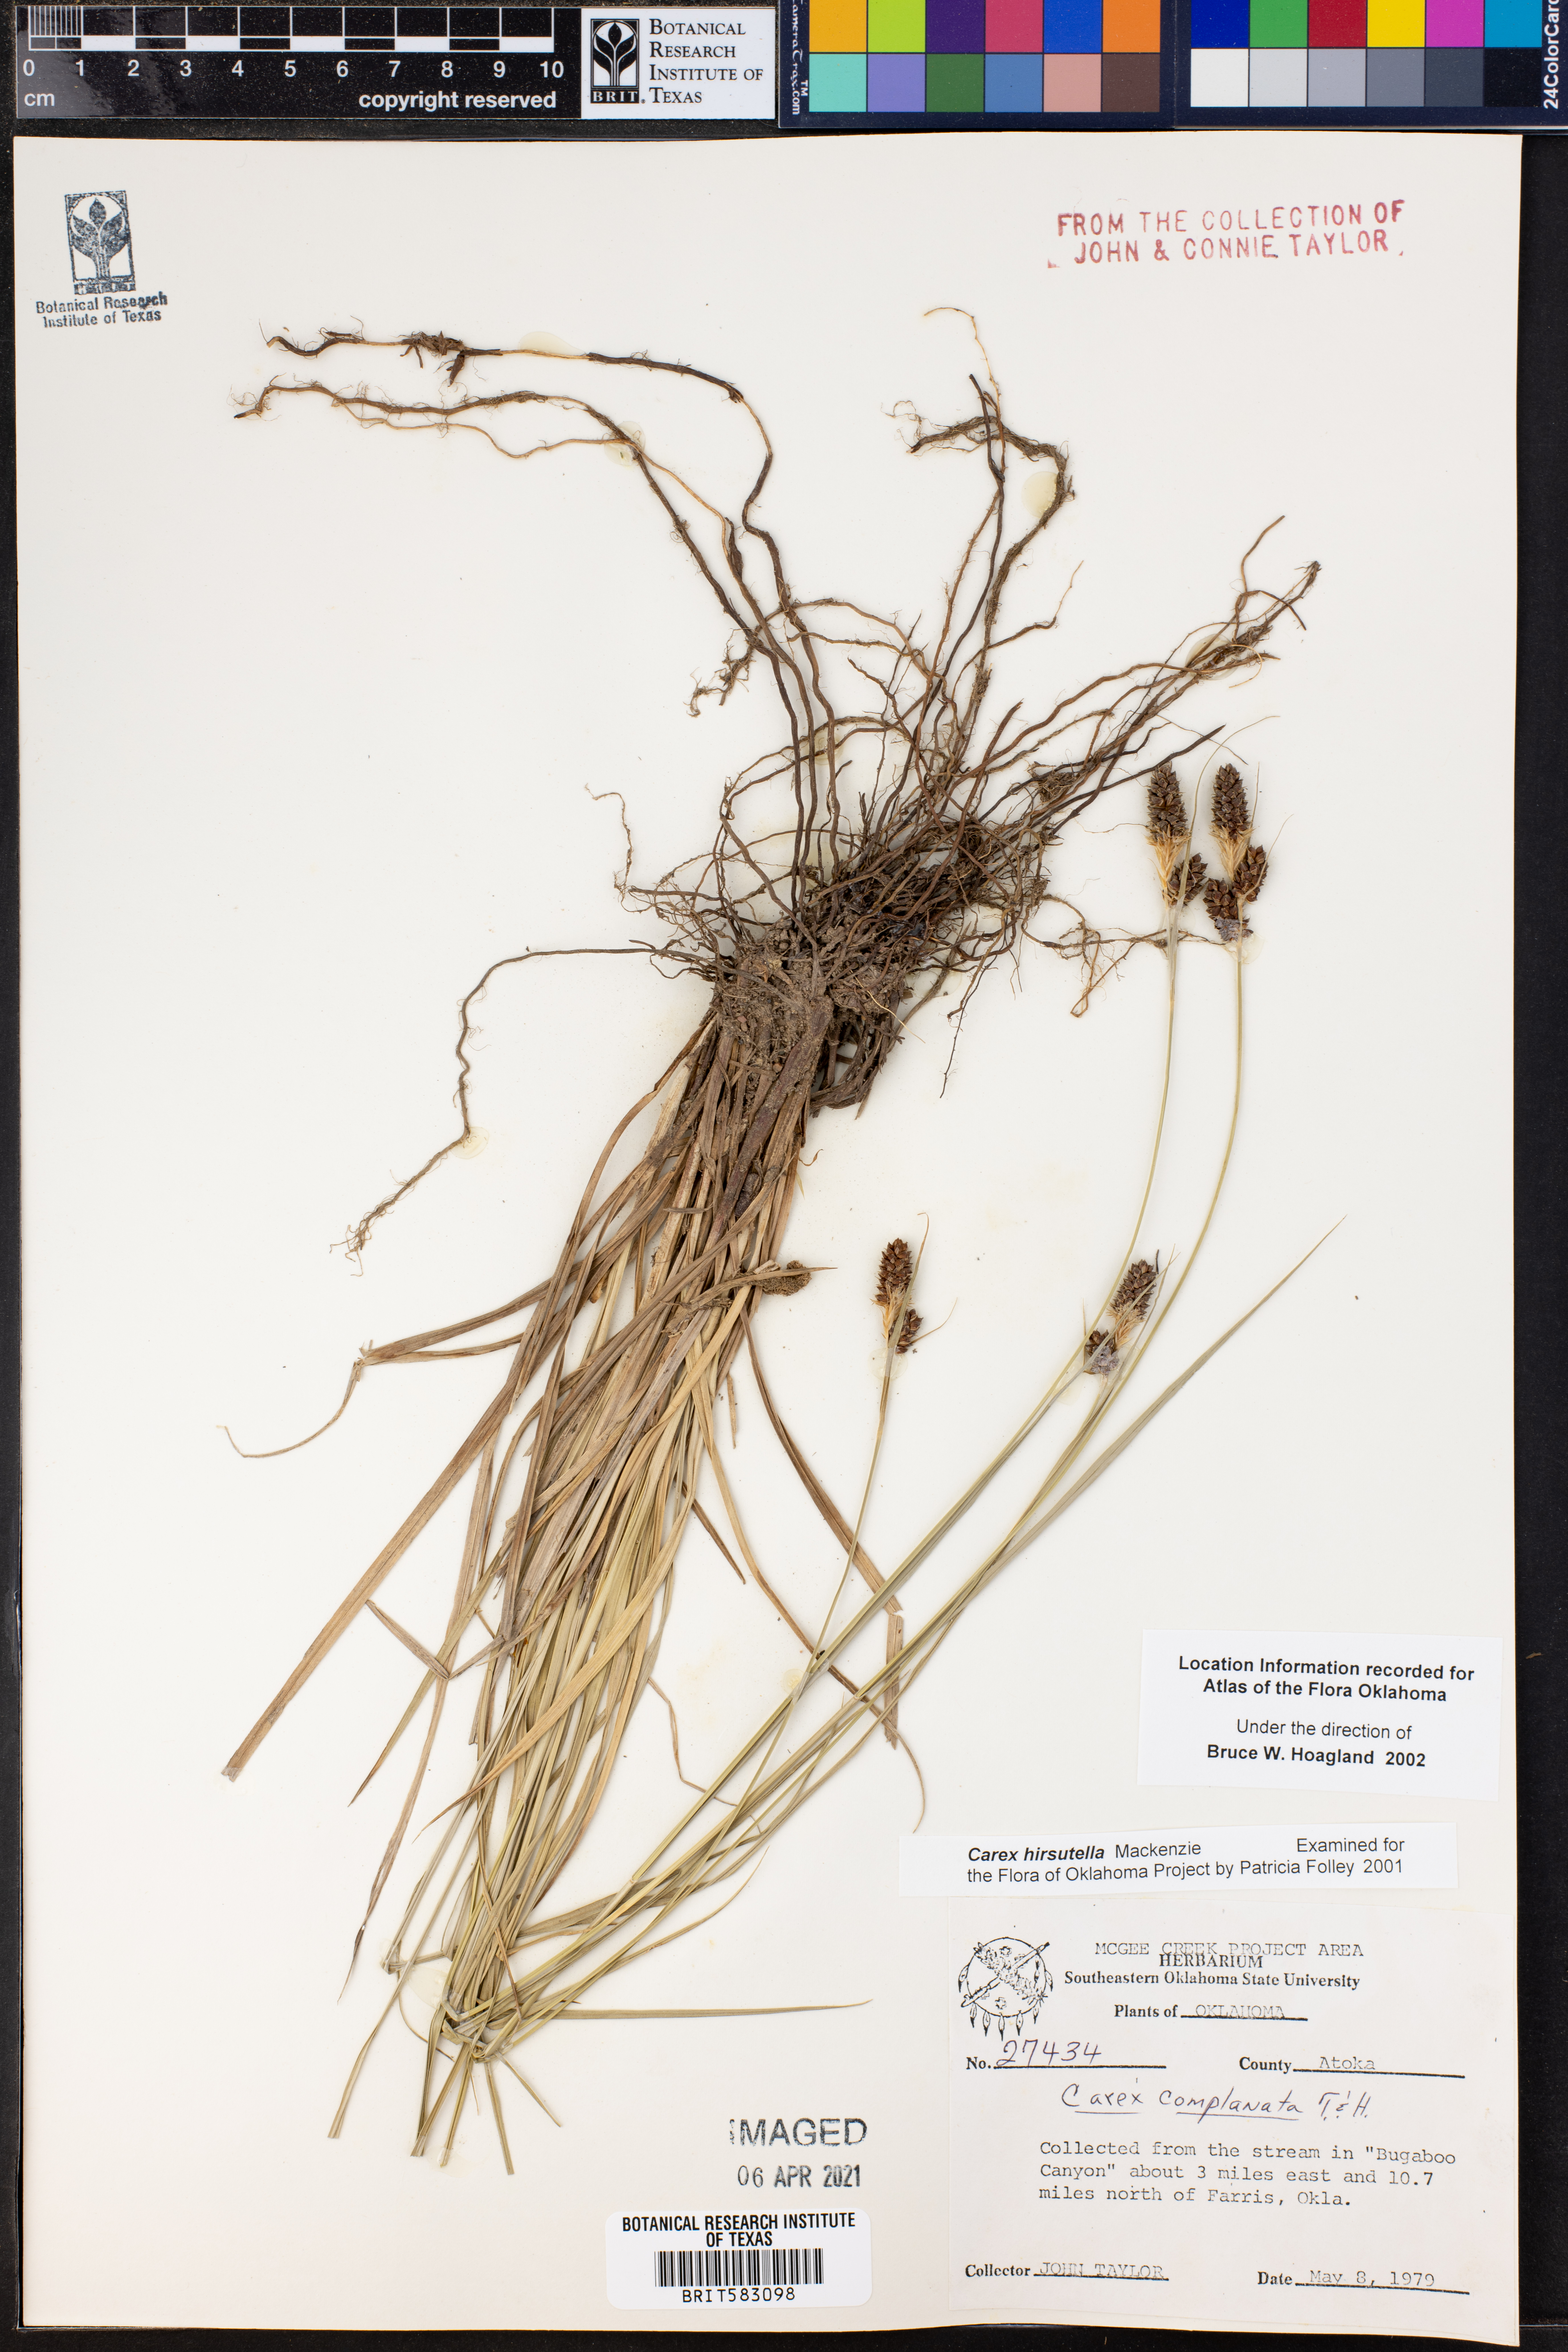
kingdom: Plantae
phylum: Tracheophyta
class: Liliopsida
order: Poales
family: Cyperaceae
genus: Carex
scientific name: Carex hirsutella
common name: Fuzzy wuzzy sedge
